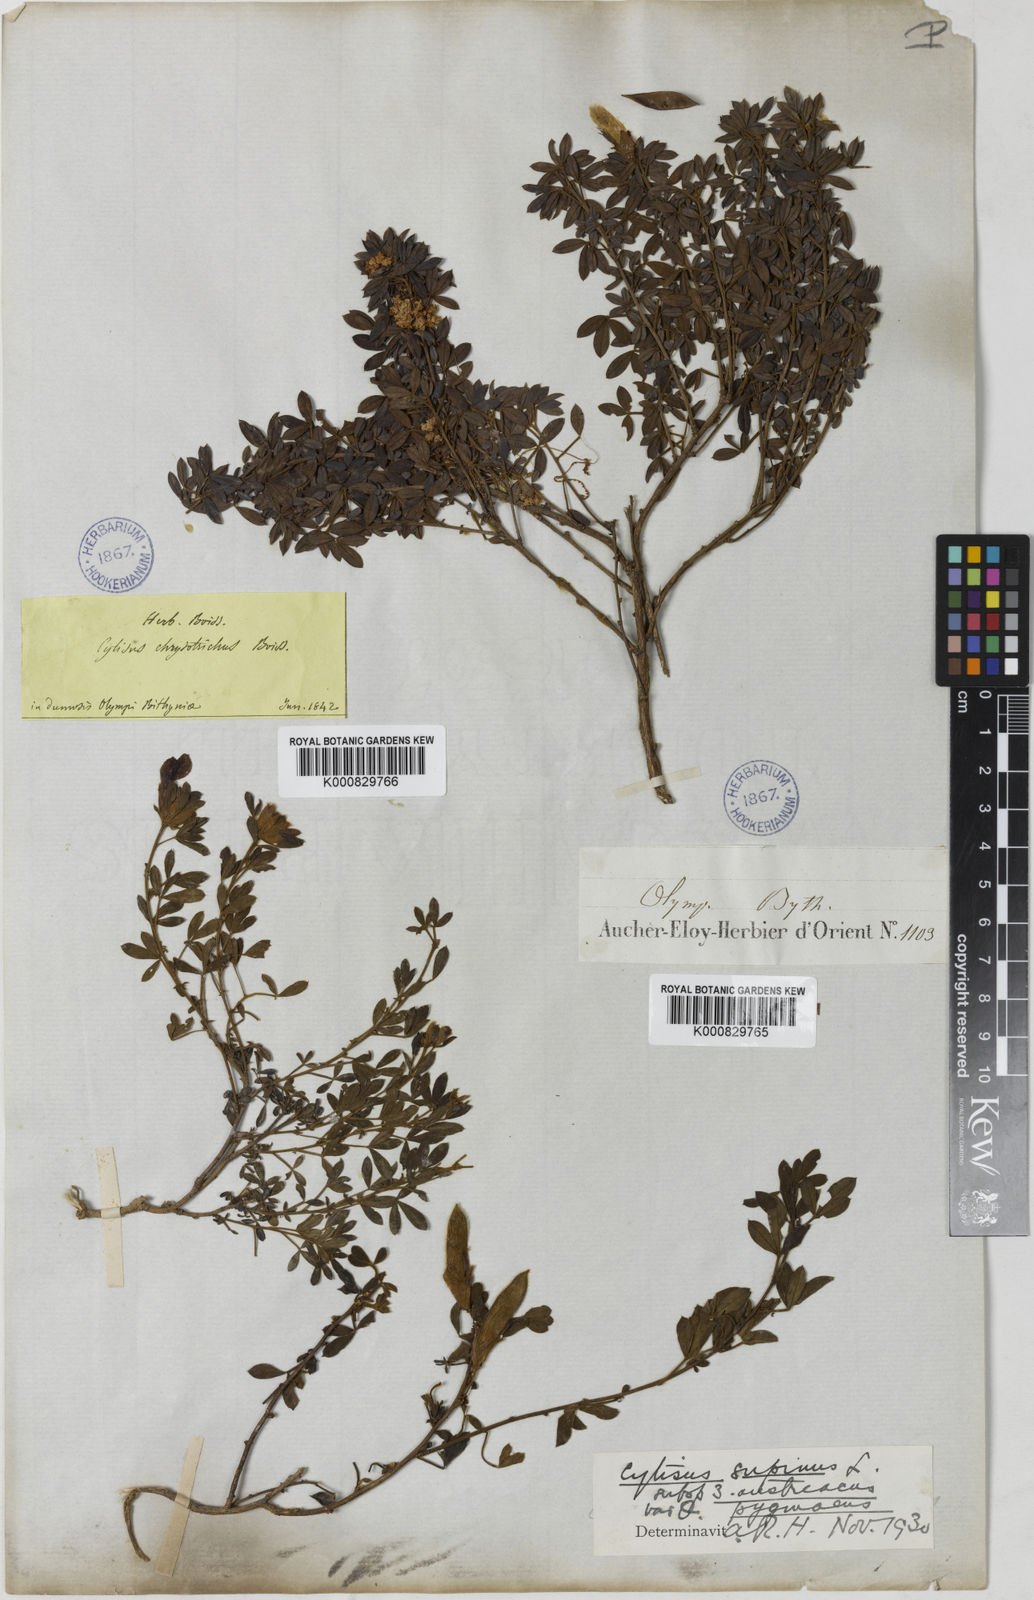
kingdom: Plantae
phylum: Tracheophyta
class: Magnoliopsida
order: Fabales
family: Fabaceae
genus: Chamaecytisus
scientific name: Chamaecytisus pygmaeus
